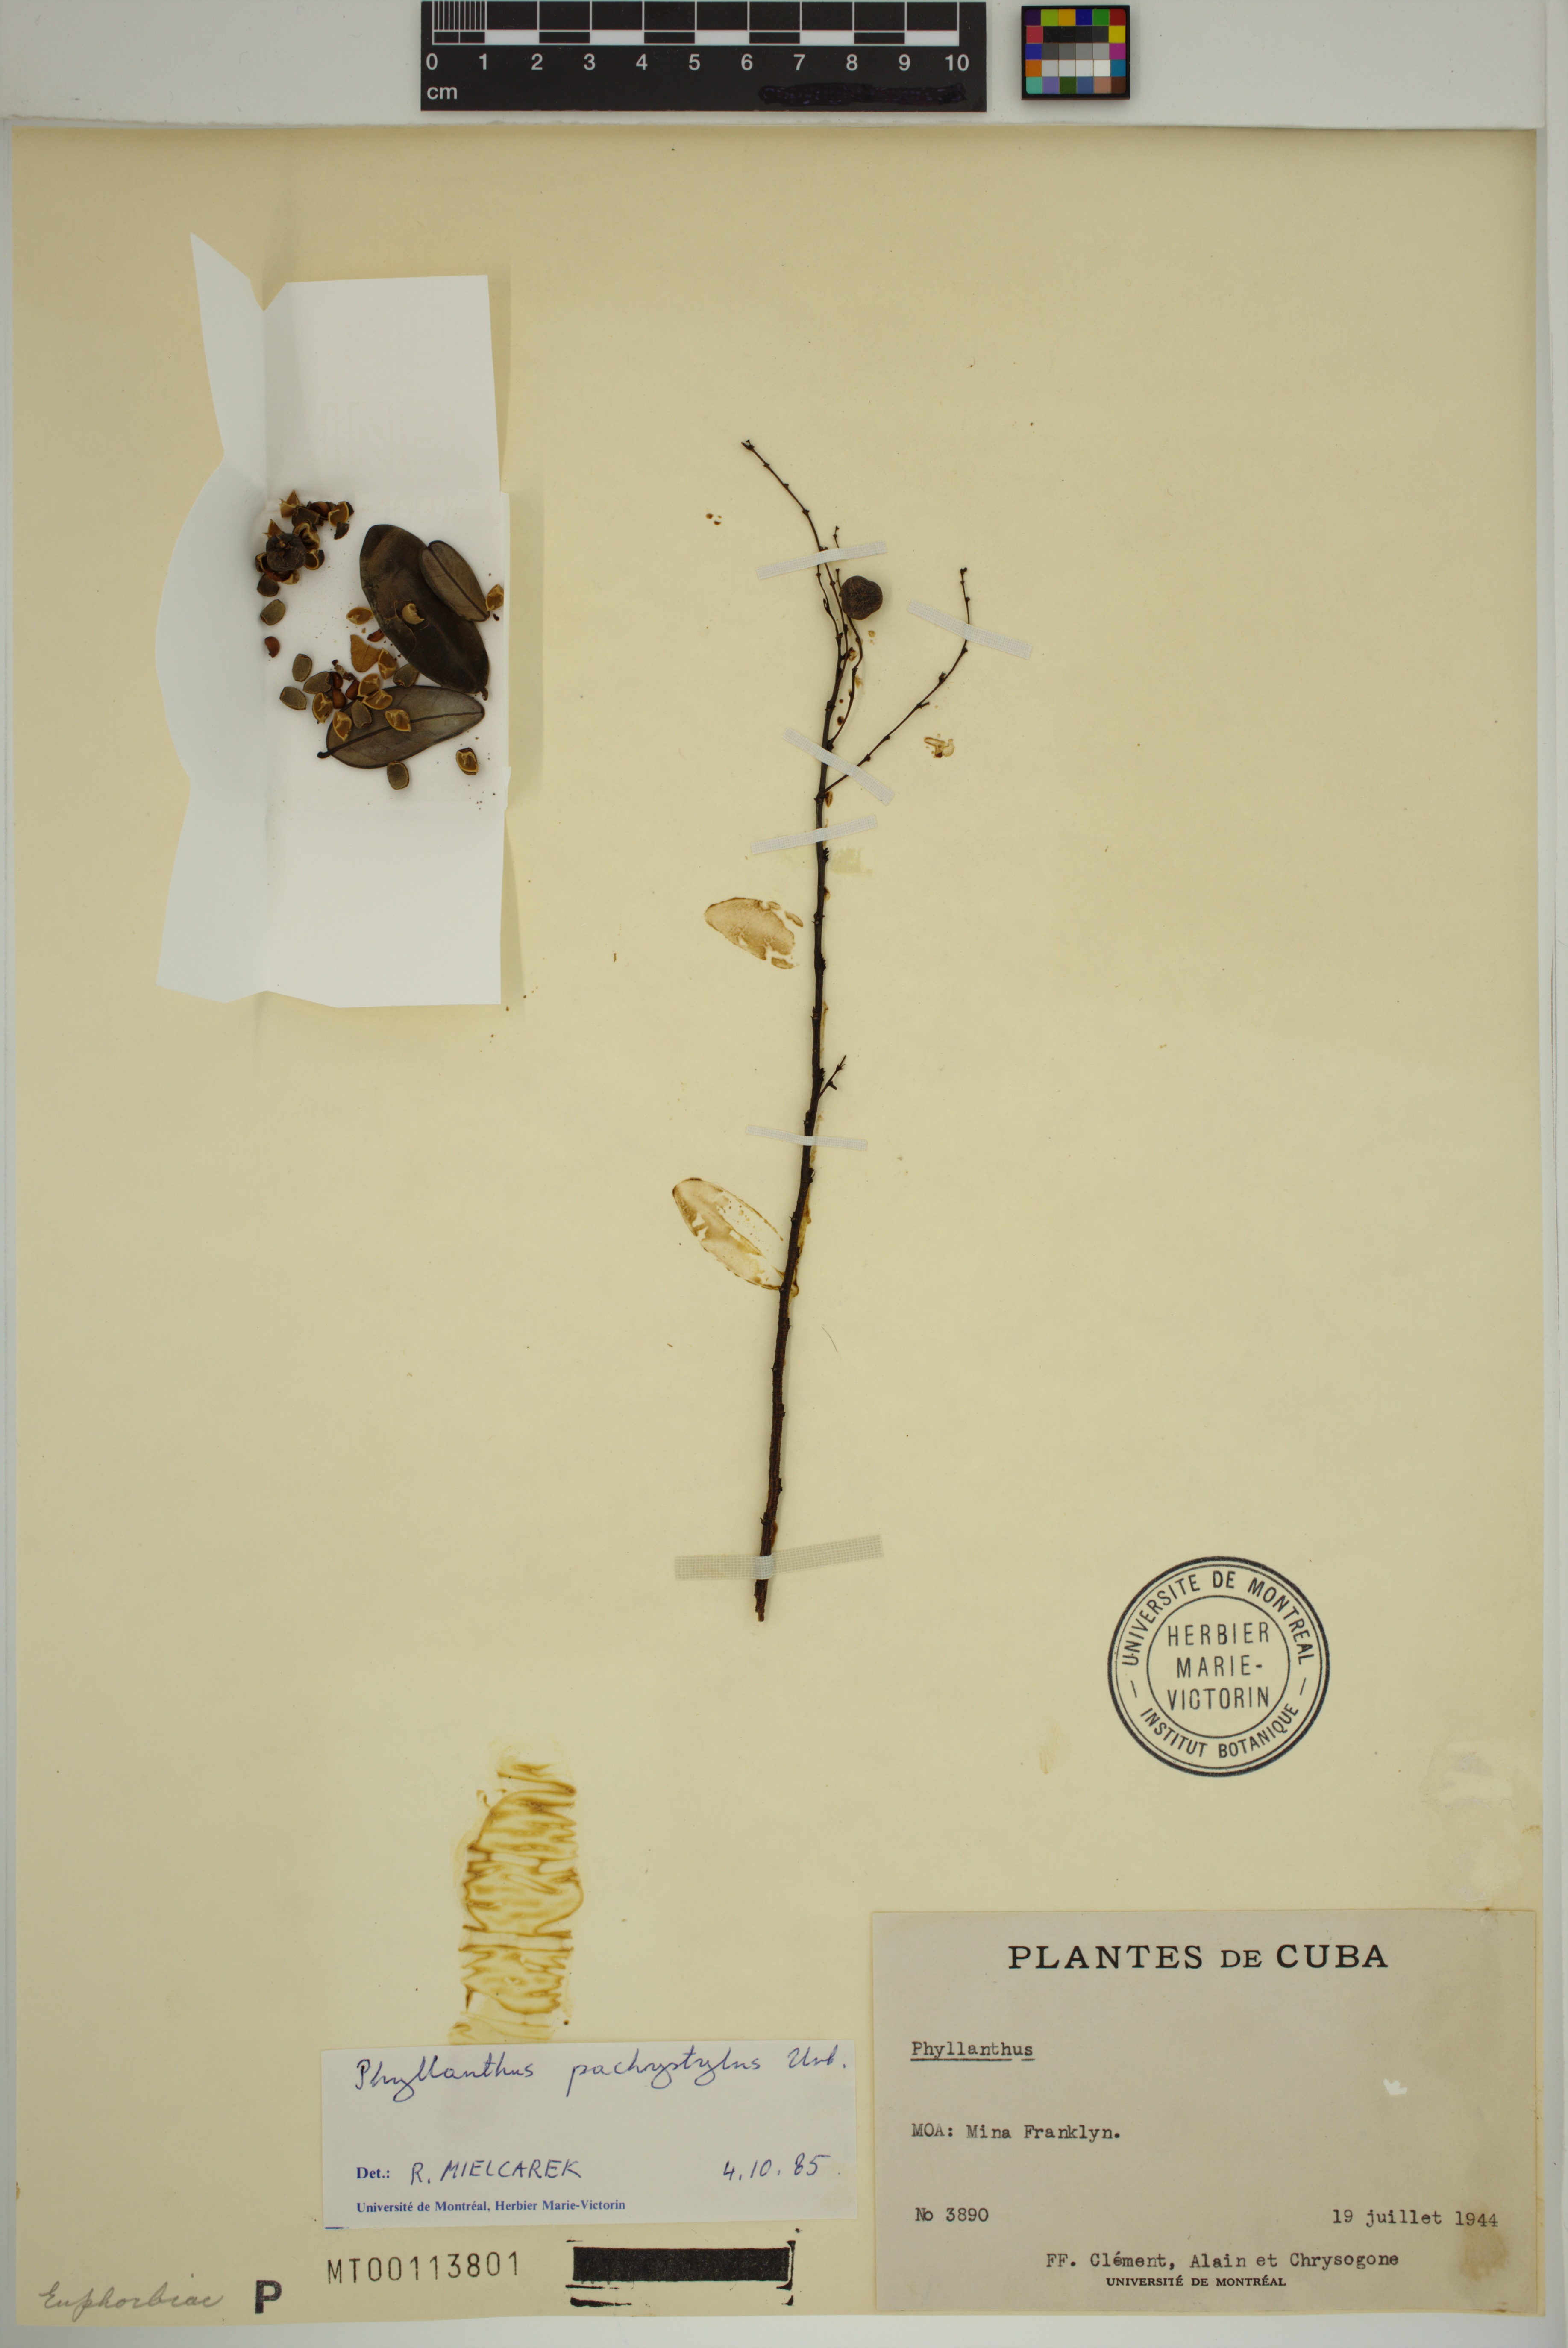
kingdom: Plantae
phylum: Tracheophyta
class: Magnoliopsida
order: Malpighiales
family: Phyllanthaceae
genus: Phyllanthus
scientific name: Phyllanthus pachystylus
